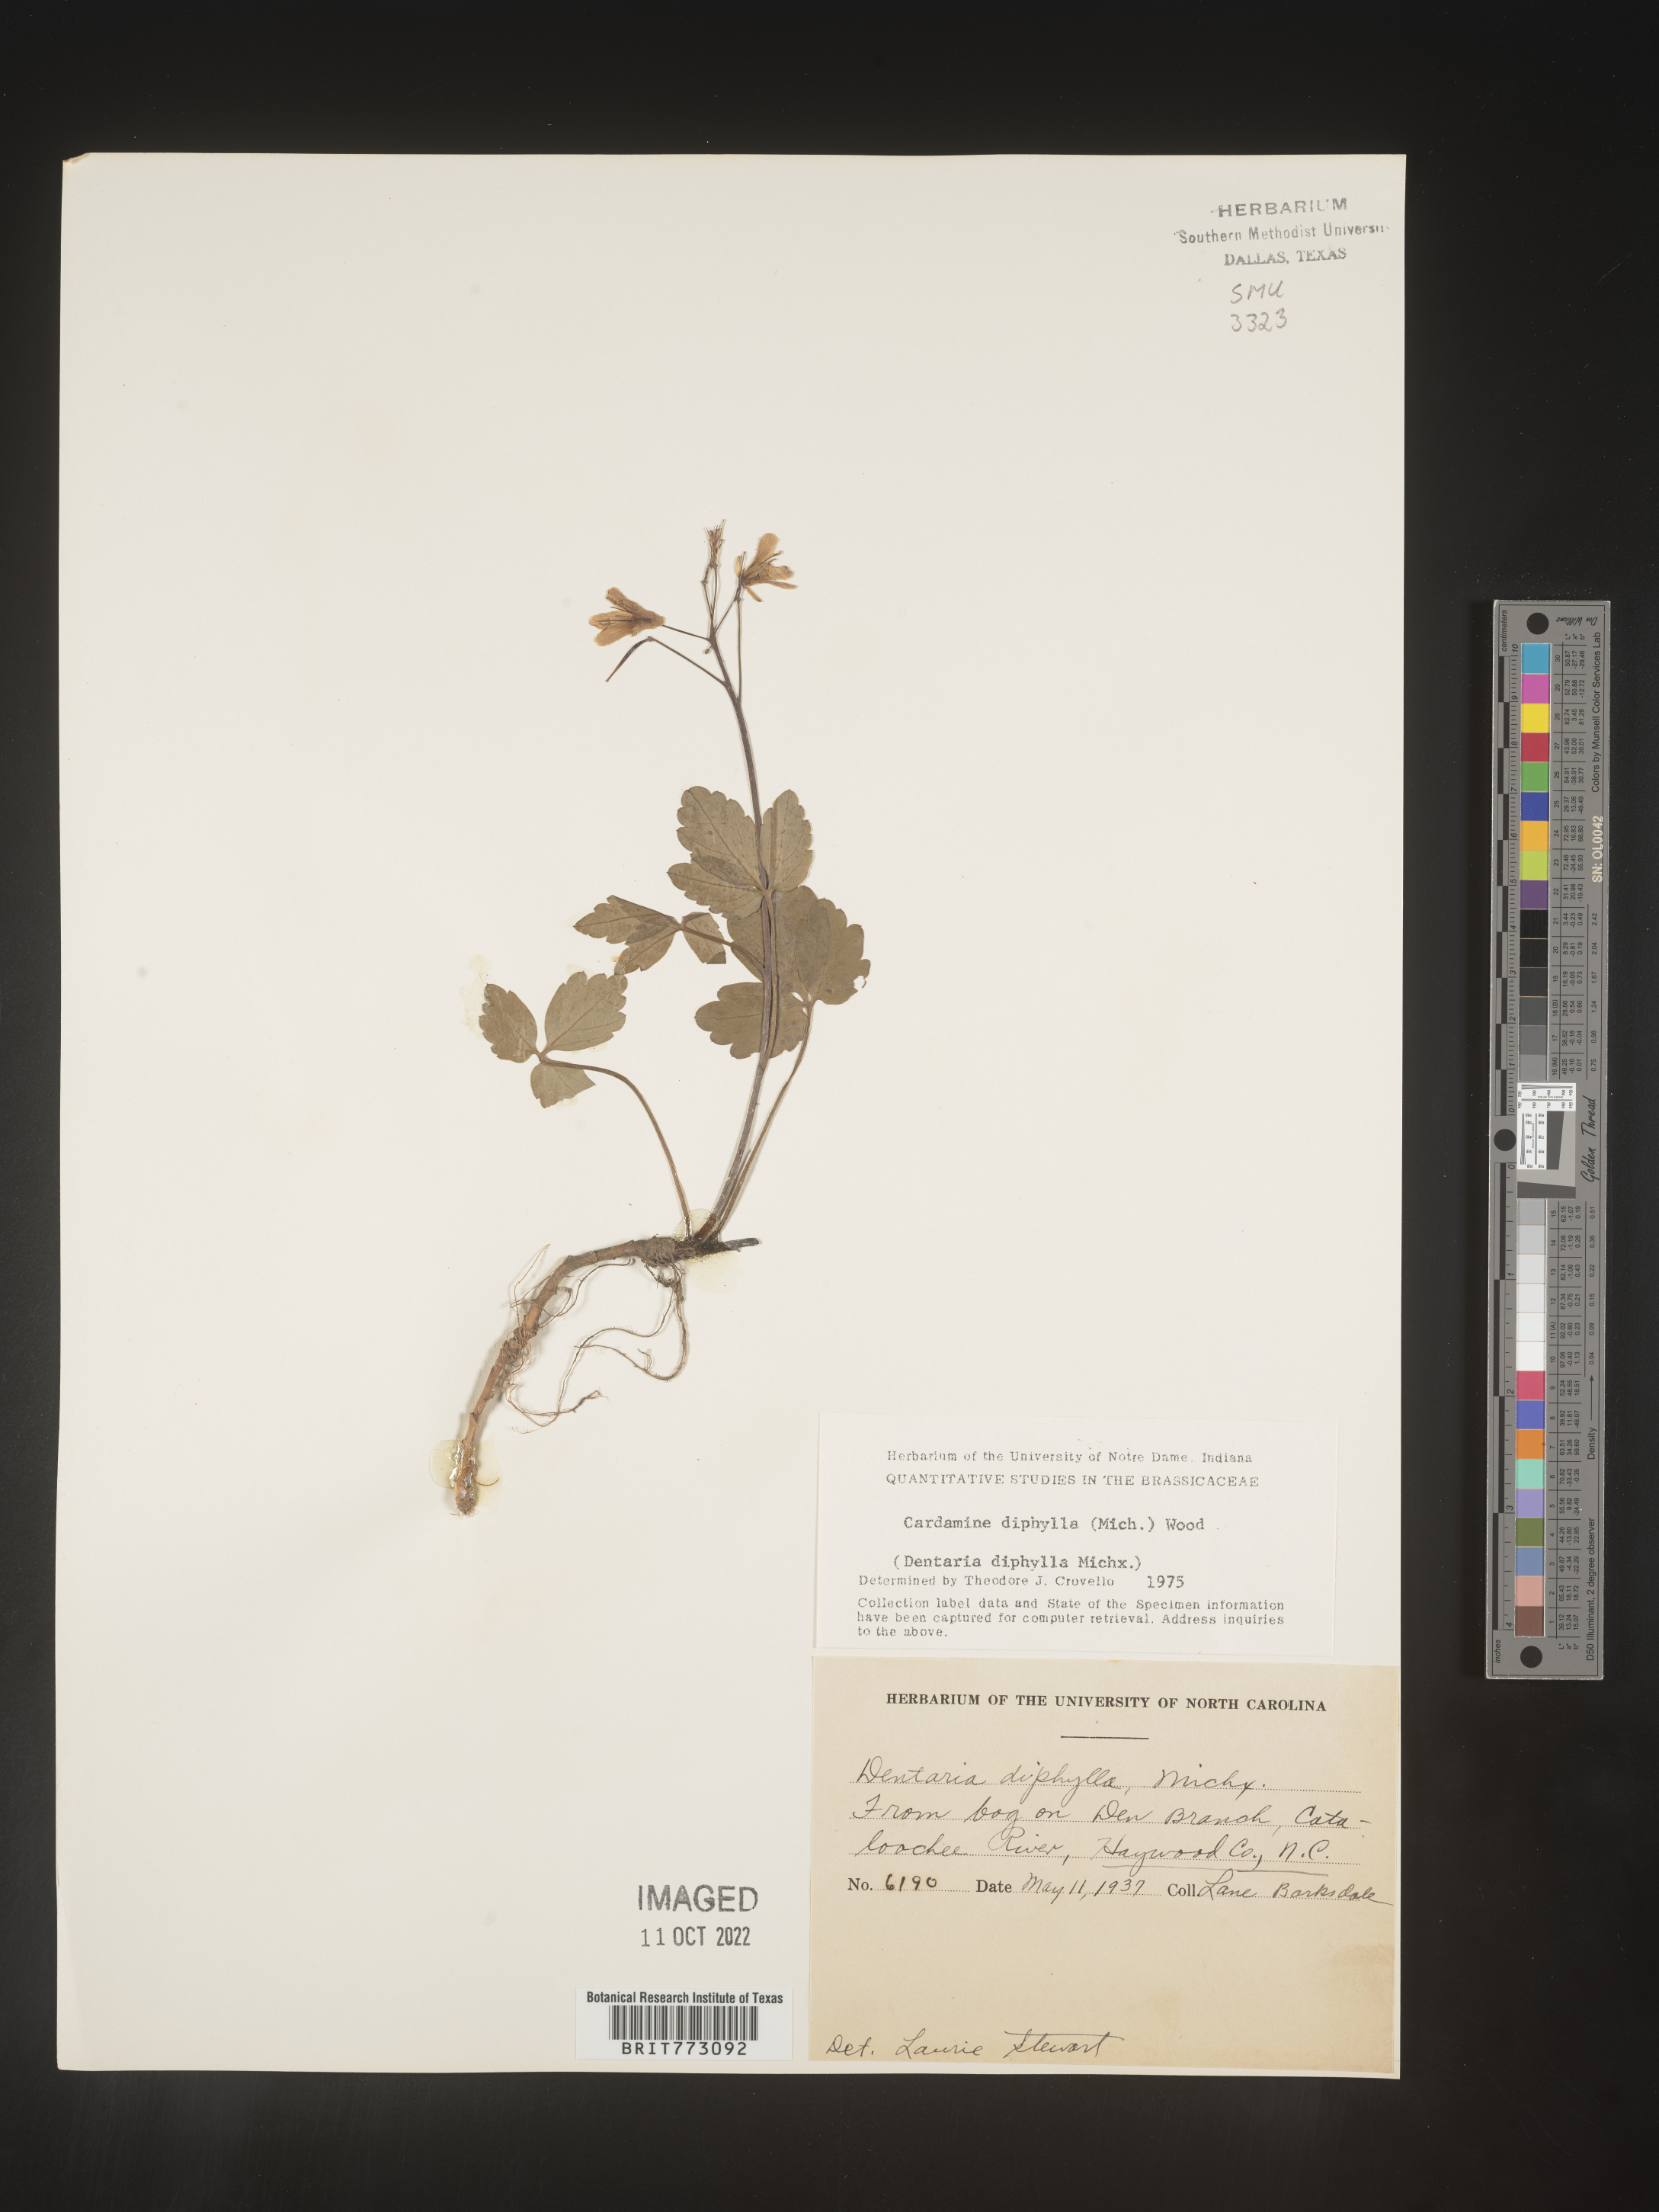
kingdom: Plantae
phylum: Tracheophyta
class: Magnoliopsida
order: Brassicales
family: Brassicaceae
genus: Cardamine
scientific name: Cardamine diphylla
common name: Broad-leaved toothwort
